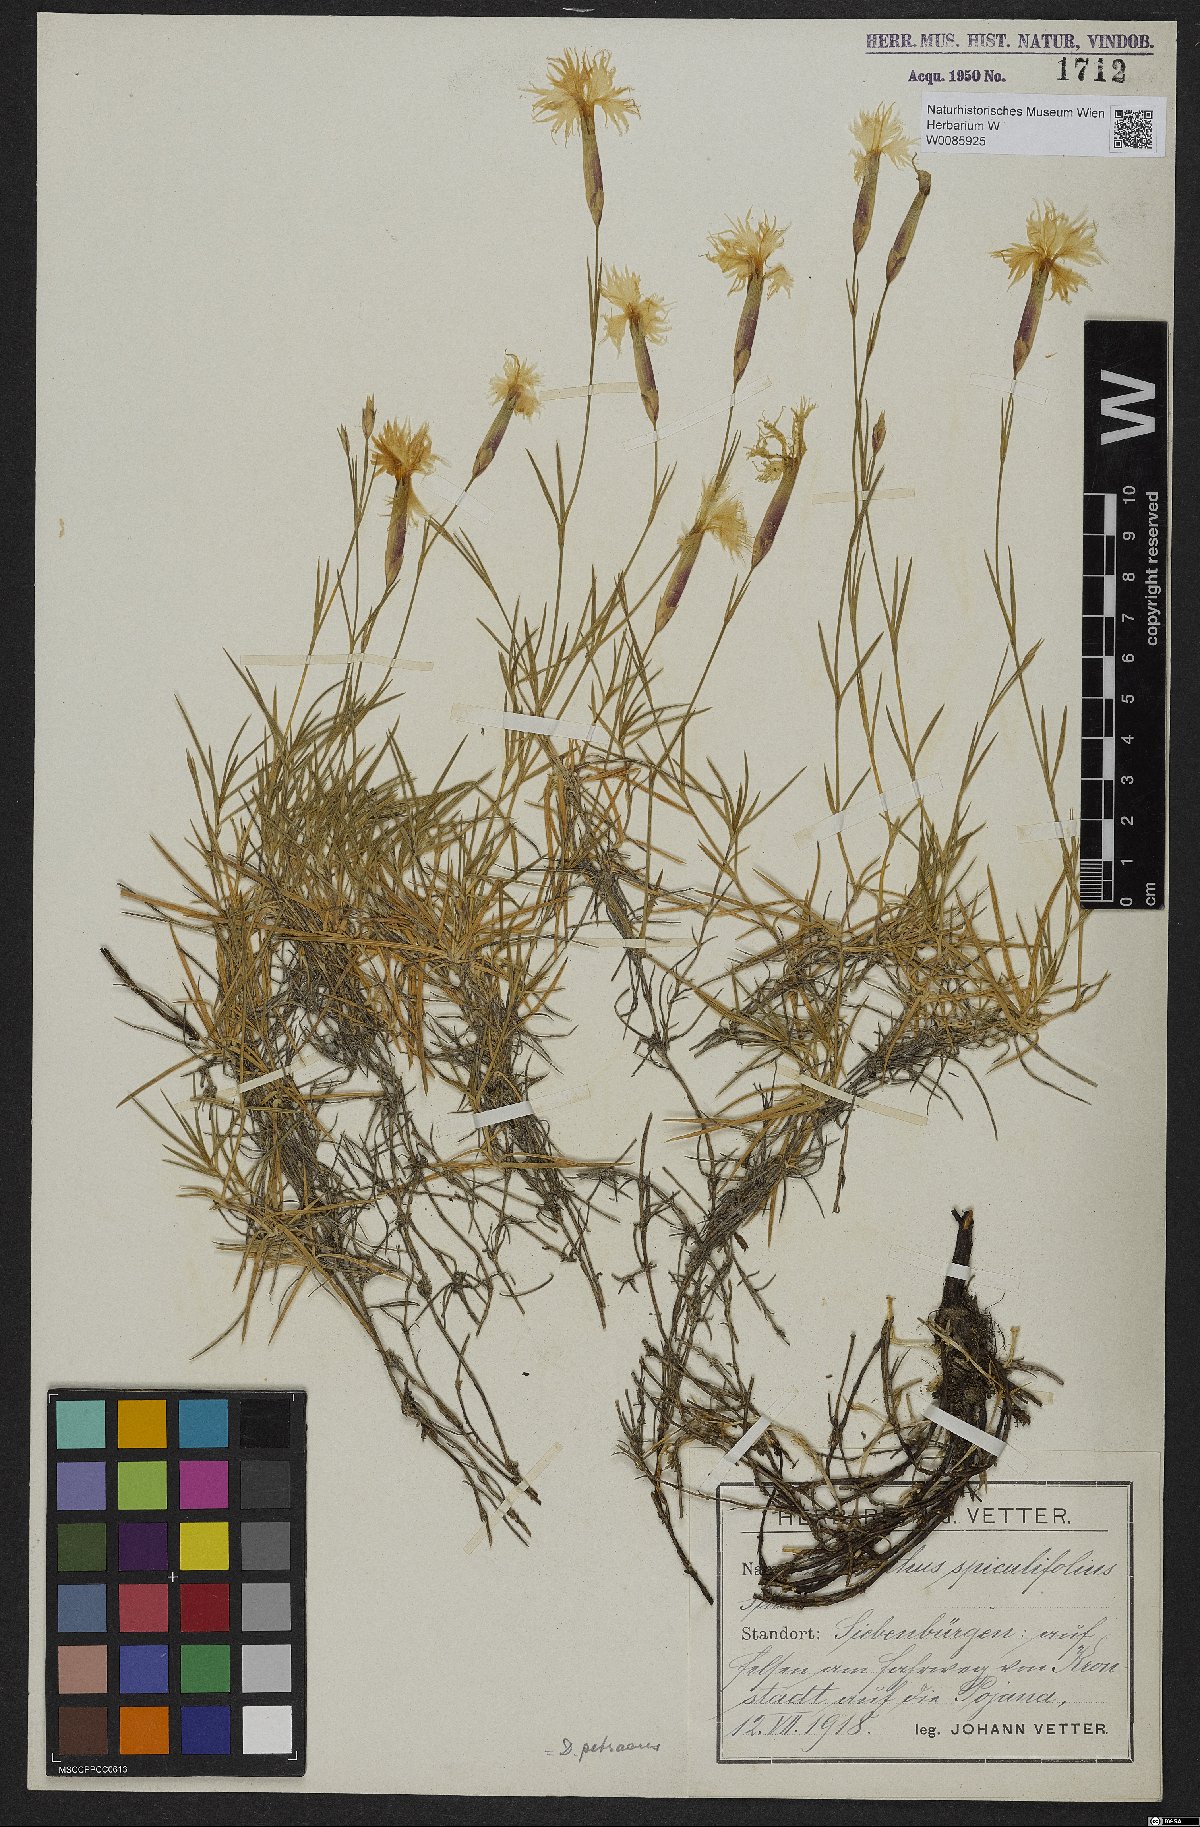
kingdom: Plantae
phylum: Tracheophyta
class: Magnoliopsida
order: Caryophyllales
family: Caryophyllaceae
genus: Dianthus
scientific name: Dianthus spiculifolius
